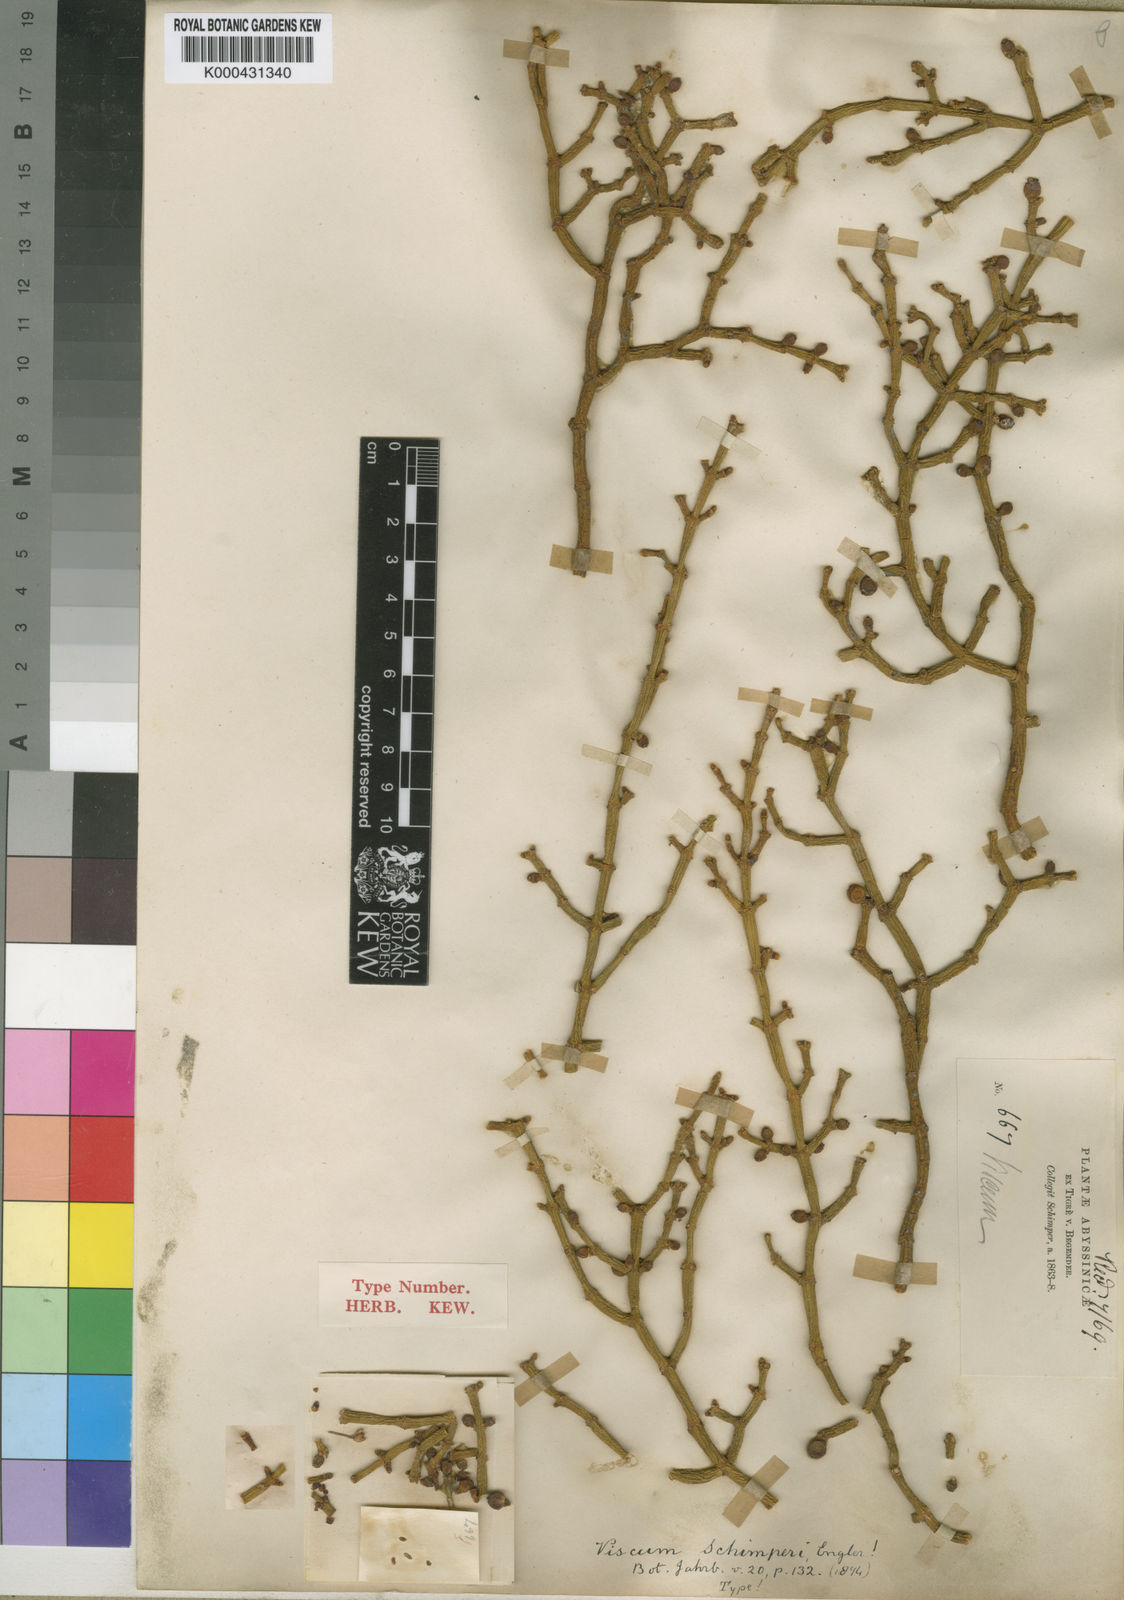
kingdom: Plantae
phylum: Tracheophyta
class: Magnoliopsida
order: Santalales
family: Viscaceae
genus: Viscum
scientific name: Viscum schimperi
